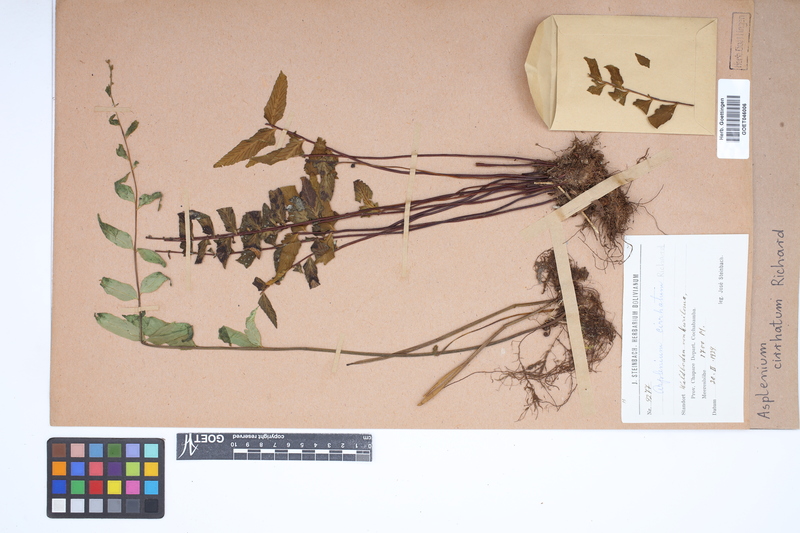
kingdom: Plantae
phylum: Tracheophyta
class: Polypodiopsida
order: Polypodiales
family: Aspleniaceae
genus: Asplenium
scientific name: Asplenium cirrhatum
